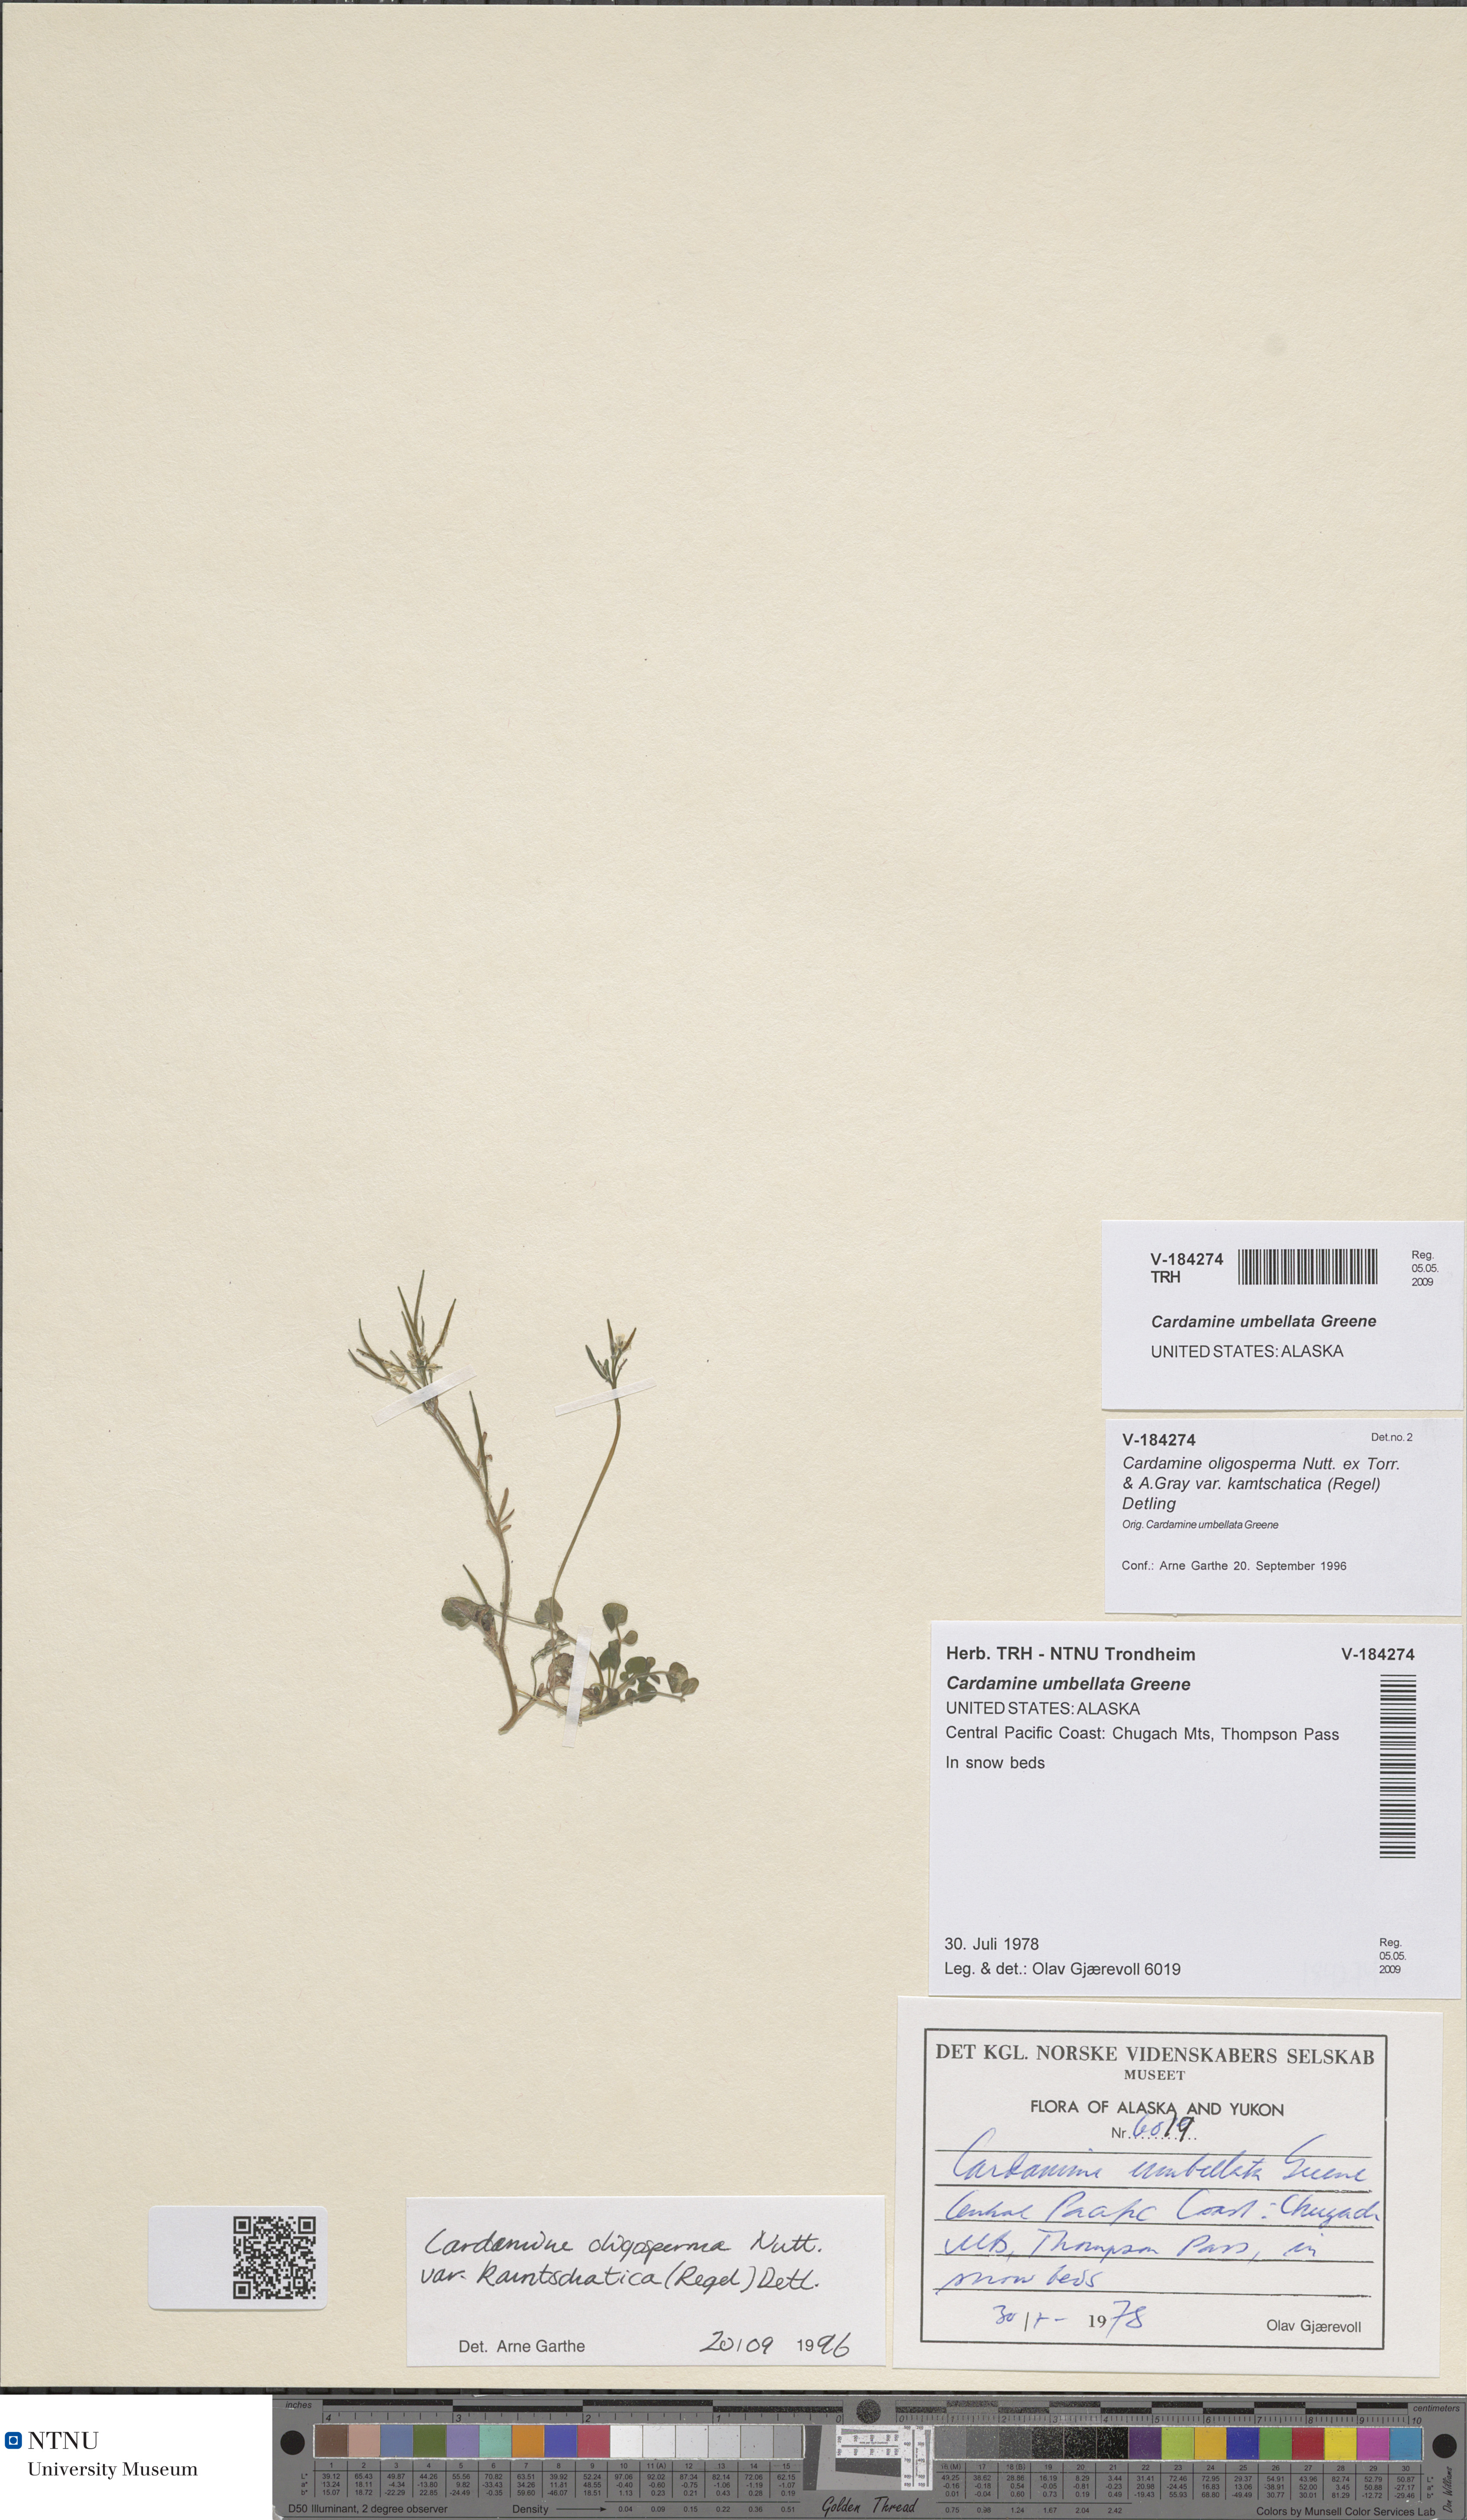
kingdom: Plantae
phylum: Tracheophyta
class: Magnoliopsida
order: Brassicales
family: Brassicaceae
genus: Cardamine
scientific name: Cardamine umbellata
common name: Siberian bittercress
